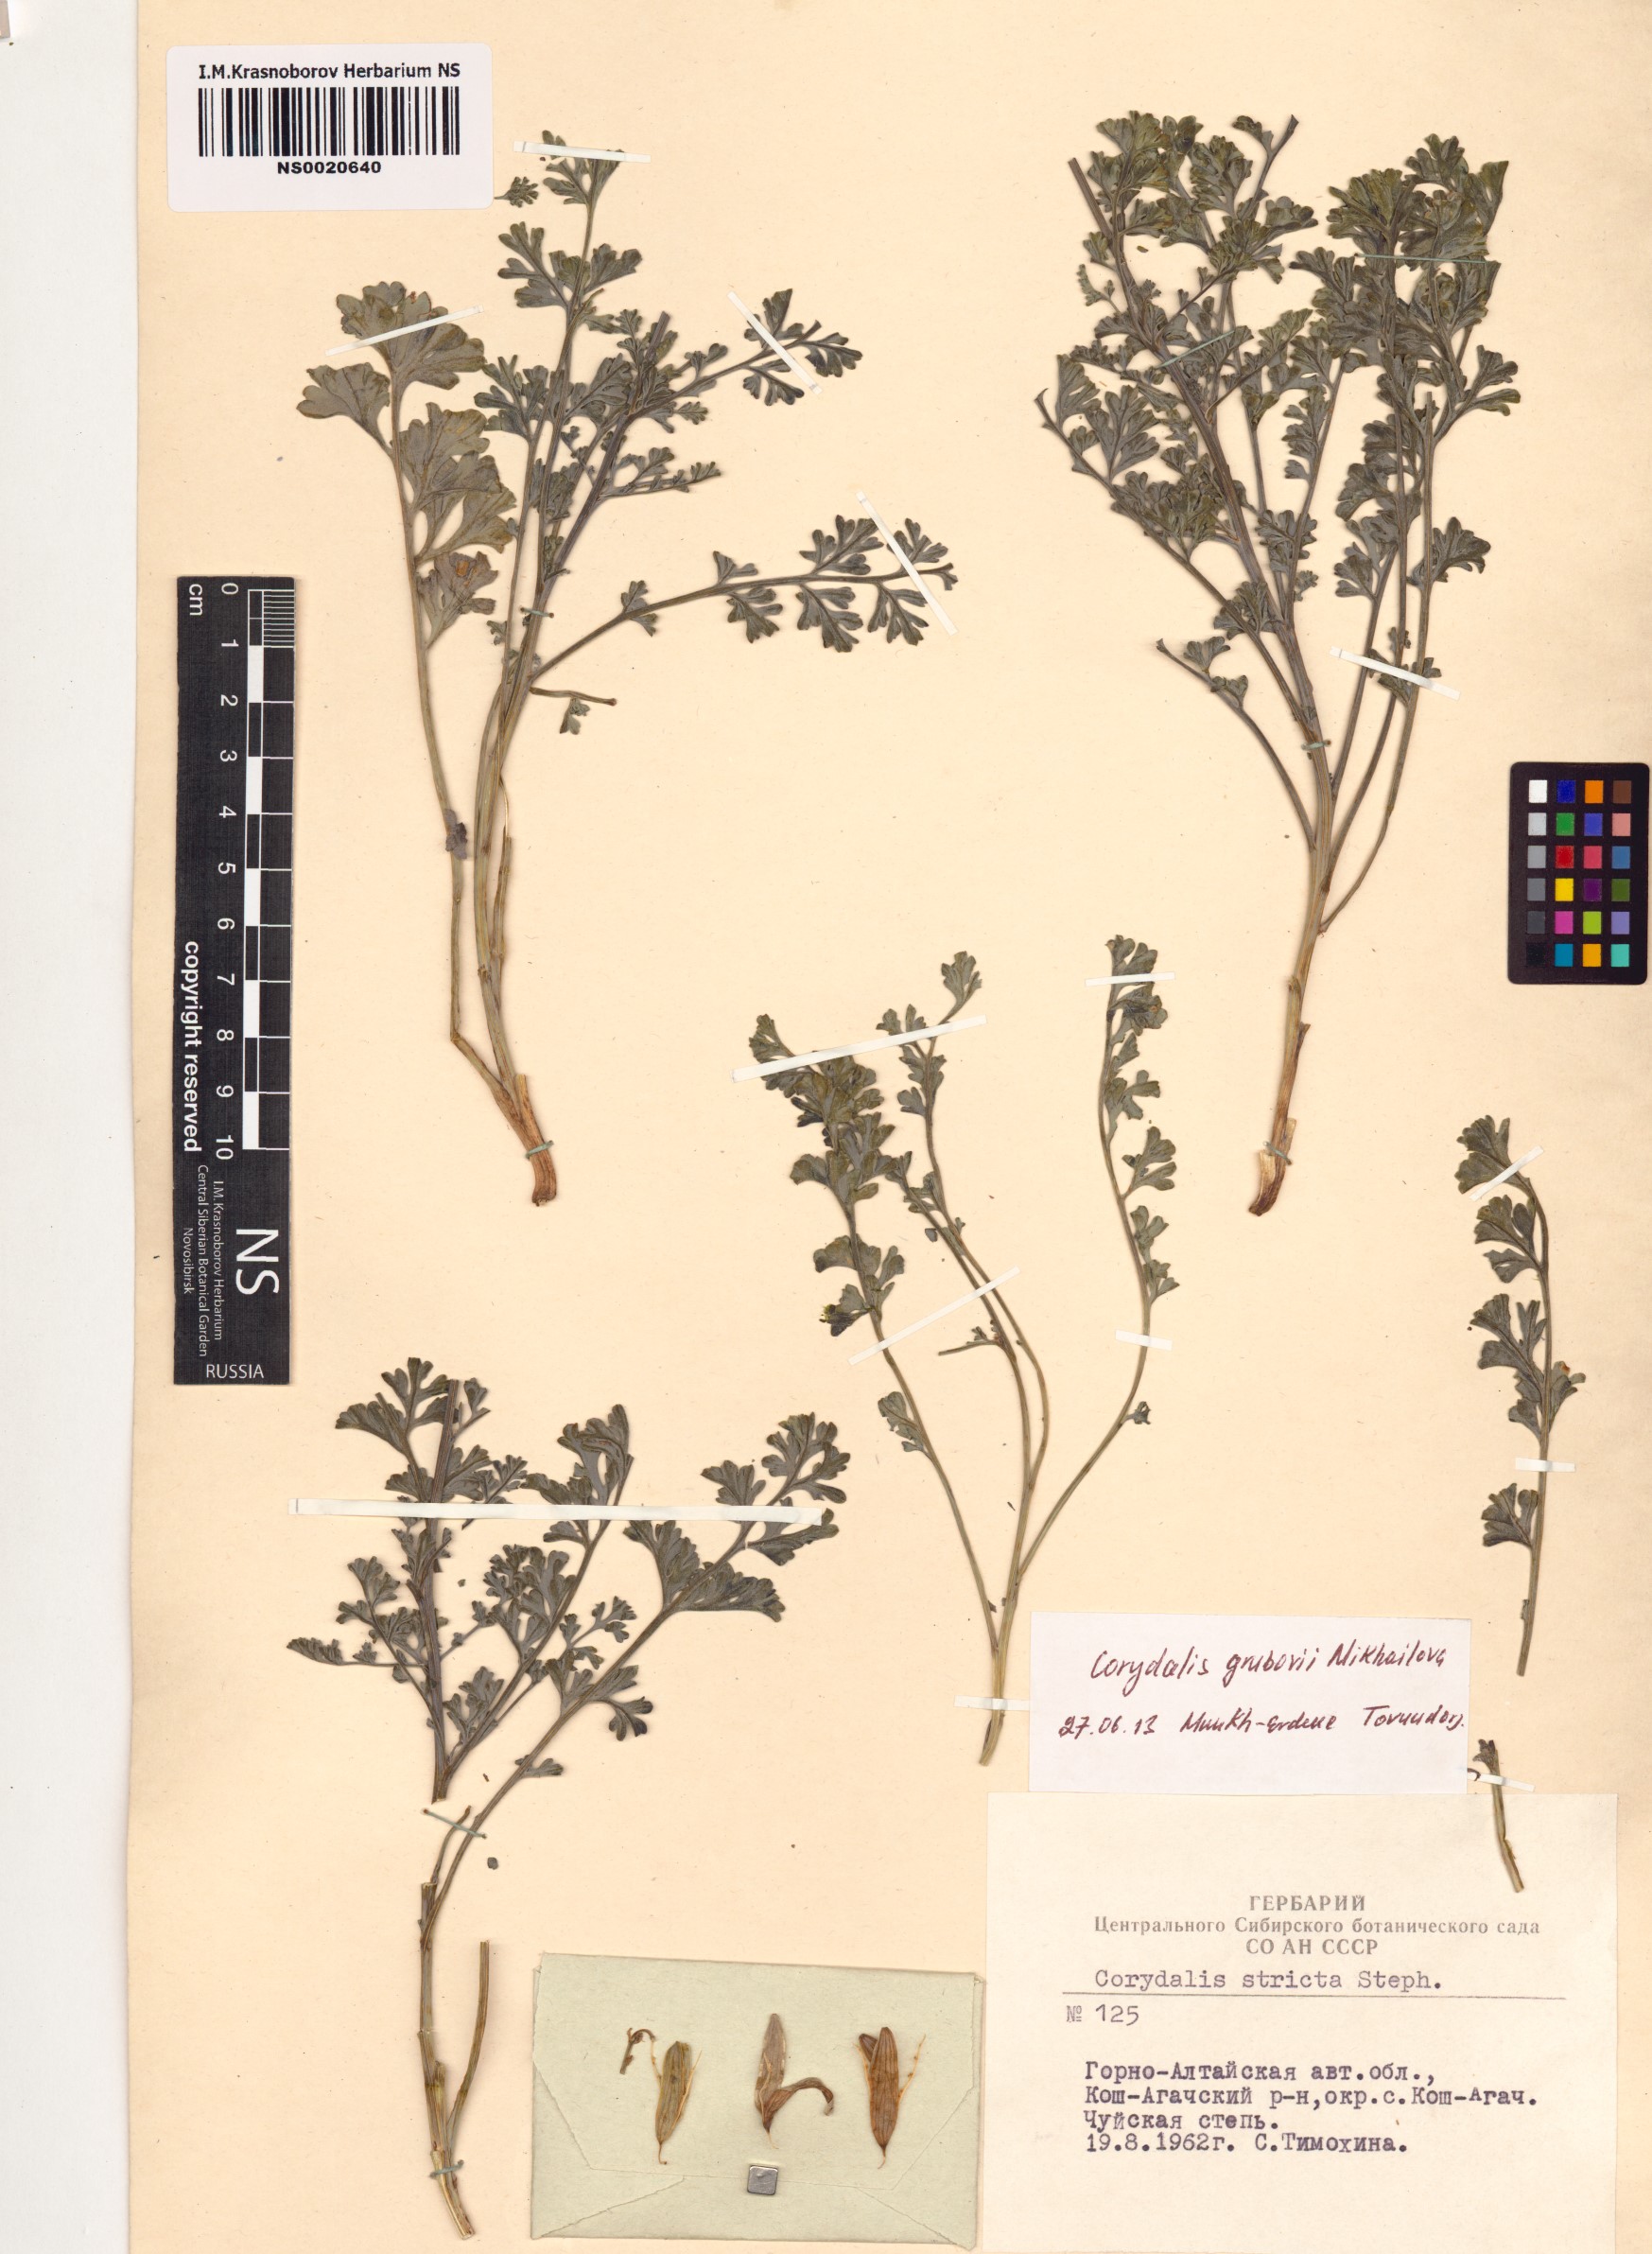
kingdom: Plantae
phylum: Tracheophyta
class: Magnoliopsida
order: Ranunculales
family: Papaveraceae
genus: Corydalis
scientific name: Corydalis stricta
